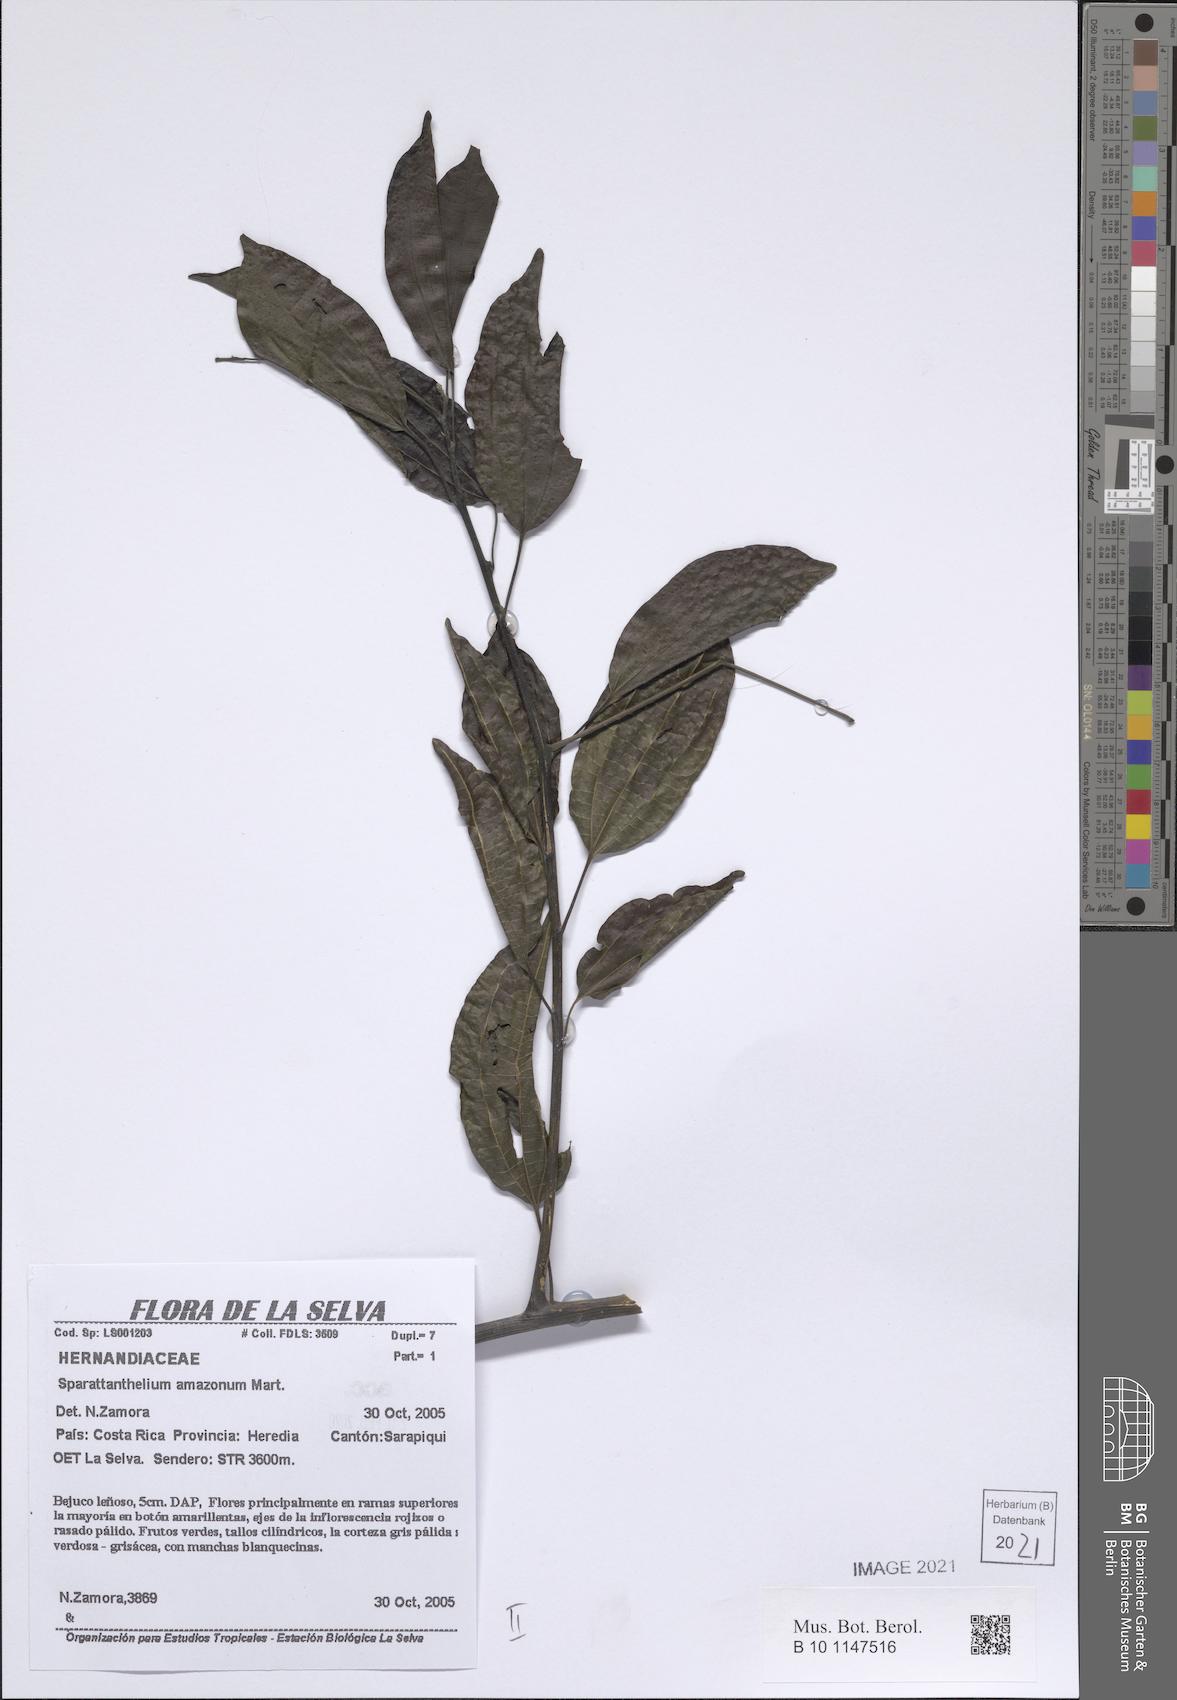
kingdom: Plantae
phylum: Tracheophyta
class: Magnoliopsida
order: Laurales
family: Hernandiaceae
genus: Sparattanthelium
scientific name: Sparattanthelium amazonum
